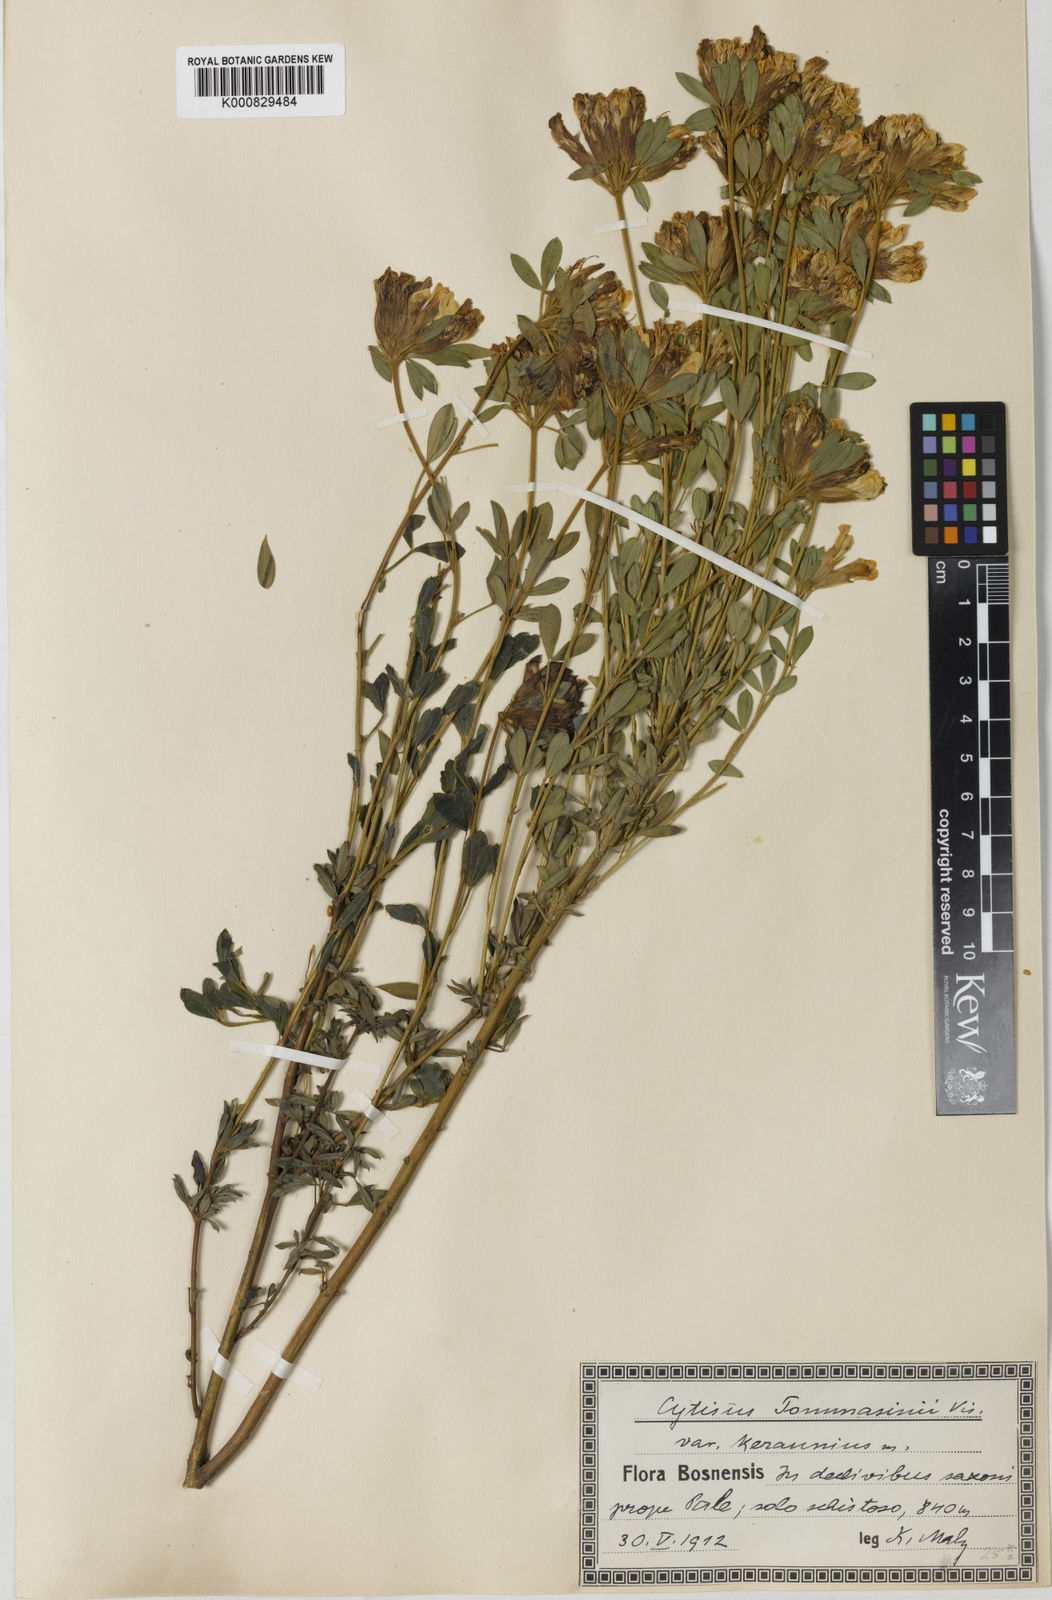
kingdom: Plantae
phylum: Tracheophyta
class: Magnoliopsida
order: Fabales
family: Fabaceae
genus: Chamaecytisus
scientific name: Chamaecytisus tommasinii
